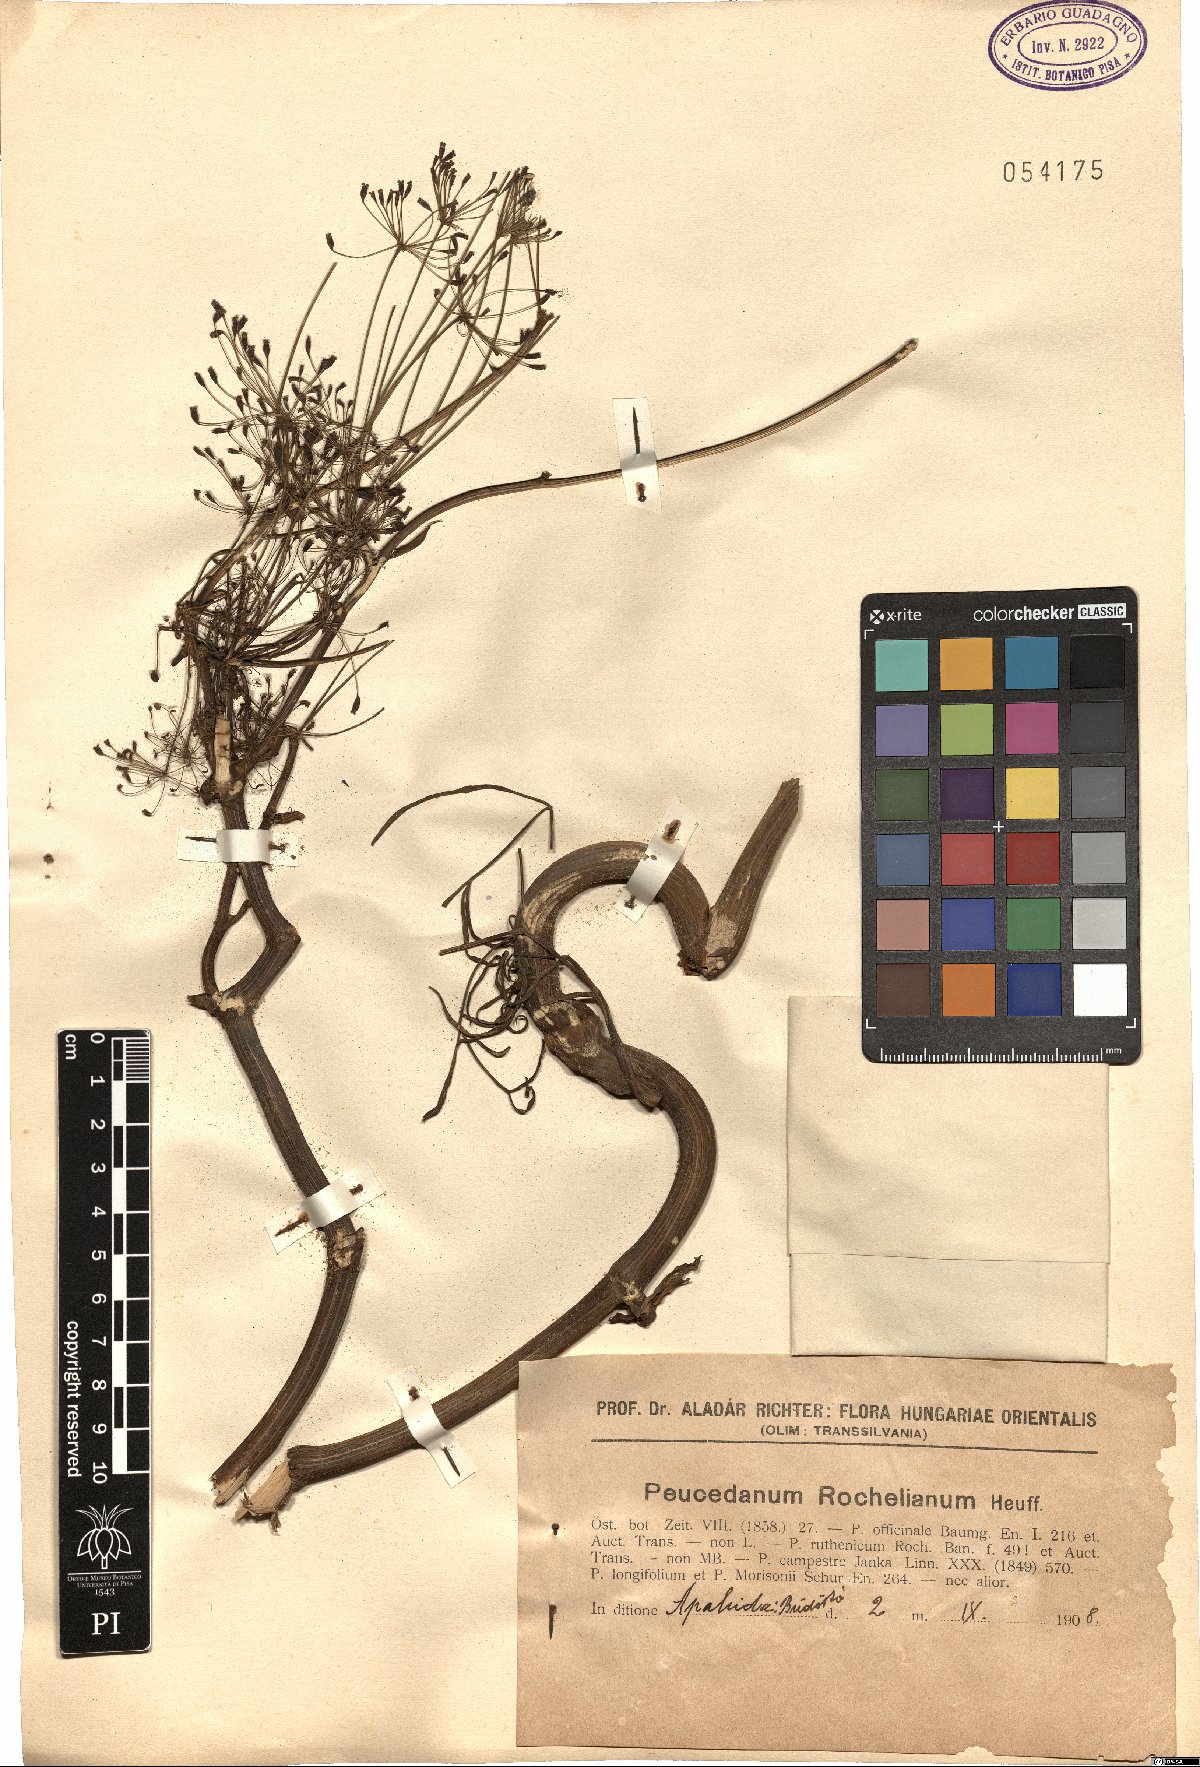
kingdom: Plantae
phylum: Tracheophyta
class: Magnoliopsida
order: Apiales
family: Apiaceae
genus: Peucedanum
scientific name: Peucedanum rochelianum
